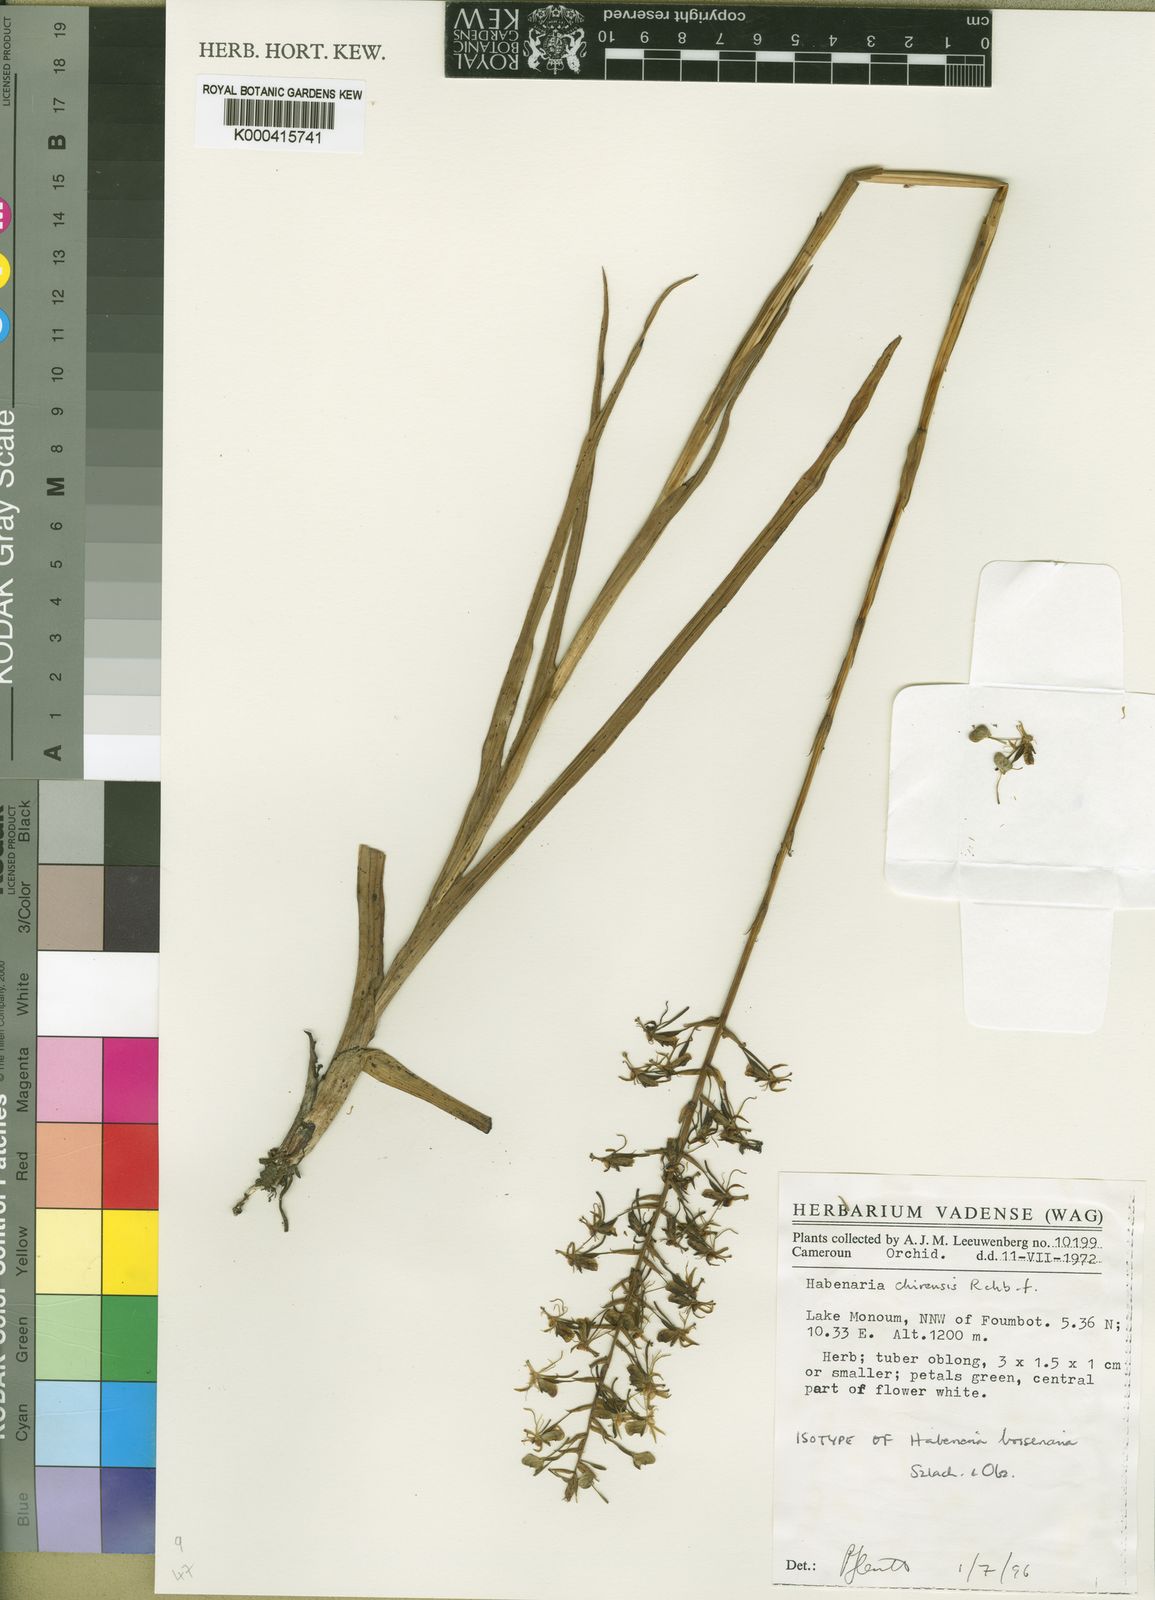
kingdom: Plantae
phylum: Tracheophyta
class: Liliopsida
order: Asparagales
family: Orchidaceae
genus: Habenaria
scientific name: Habenaria chirensis
